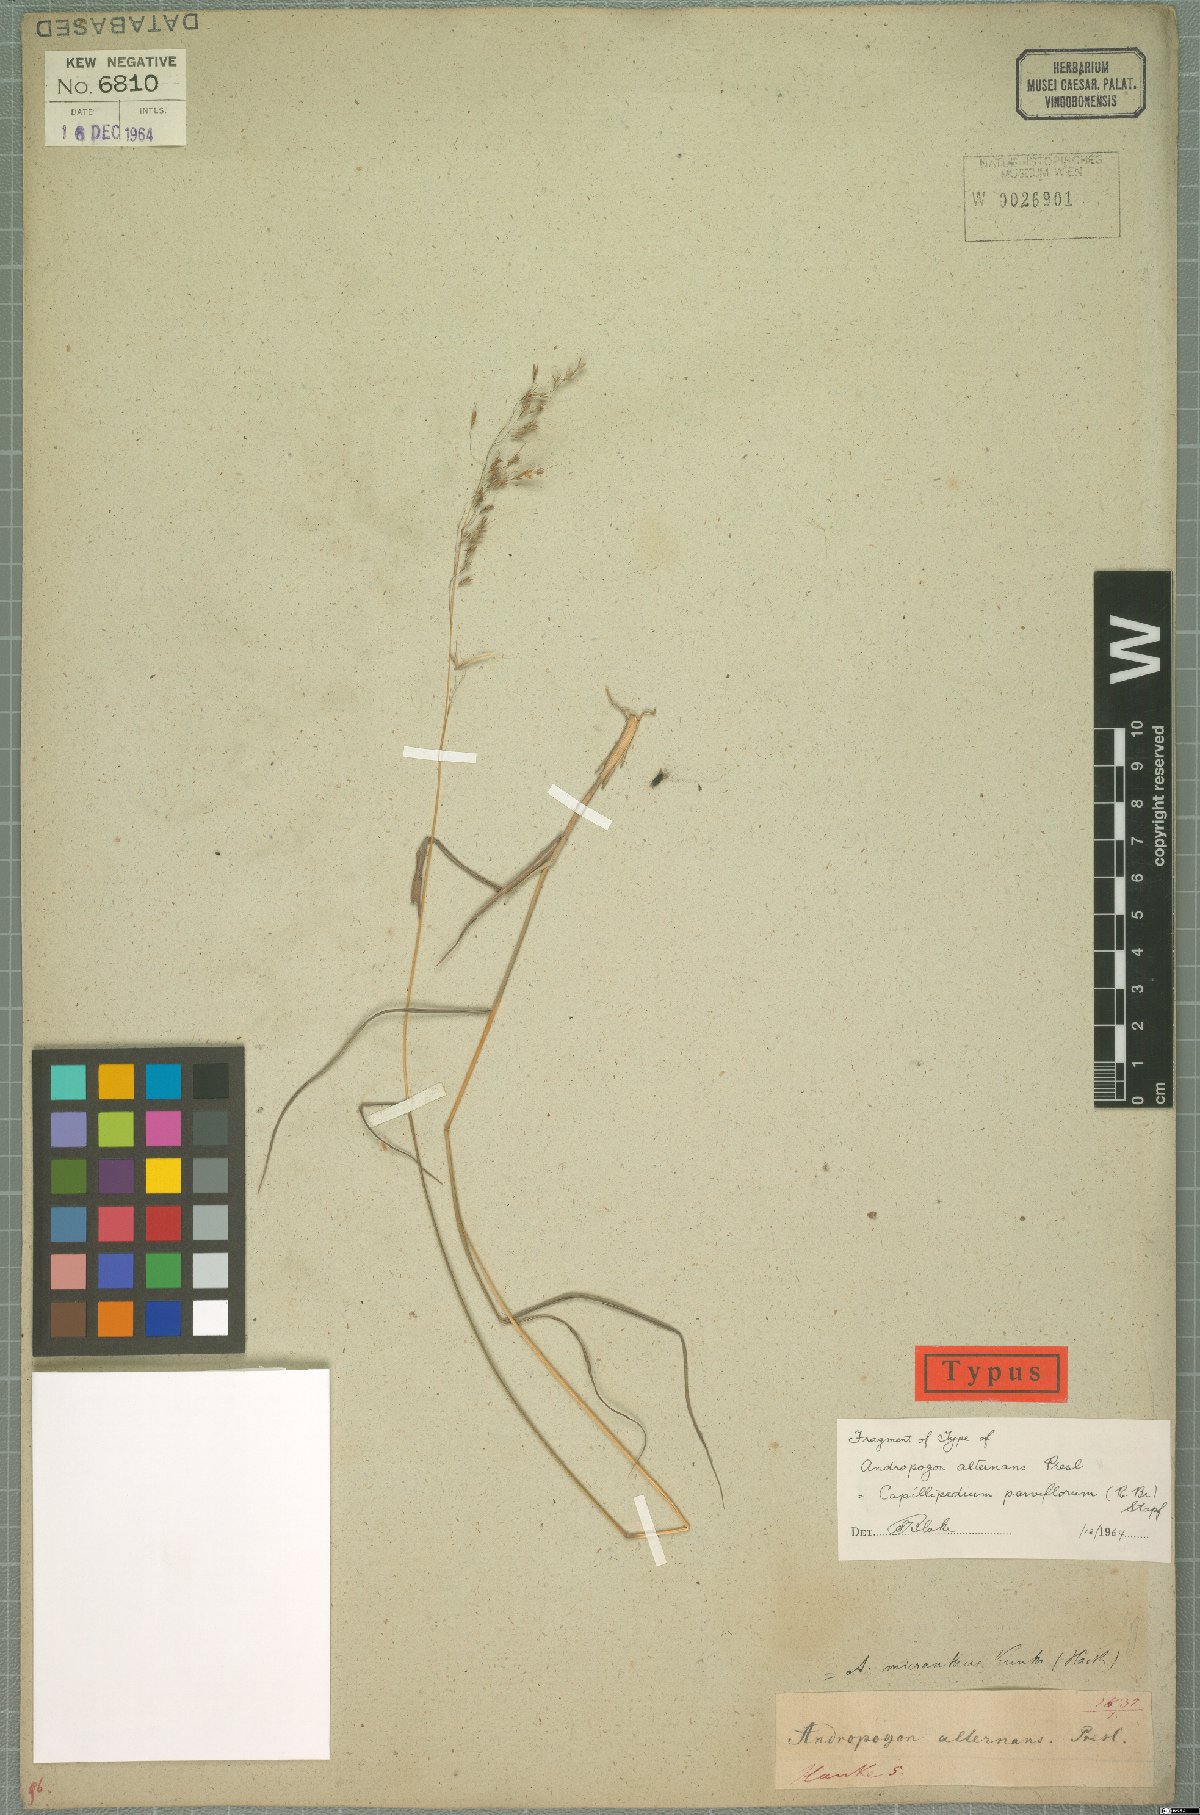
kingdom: Plantae
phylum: Tracheophyta
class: Liliopsida
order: Poales
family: Poaceae
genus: Capillipedium
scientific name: Capillipedium parviflorum
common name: Golden-beard
